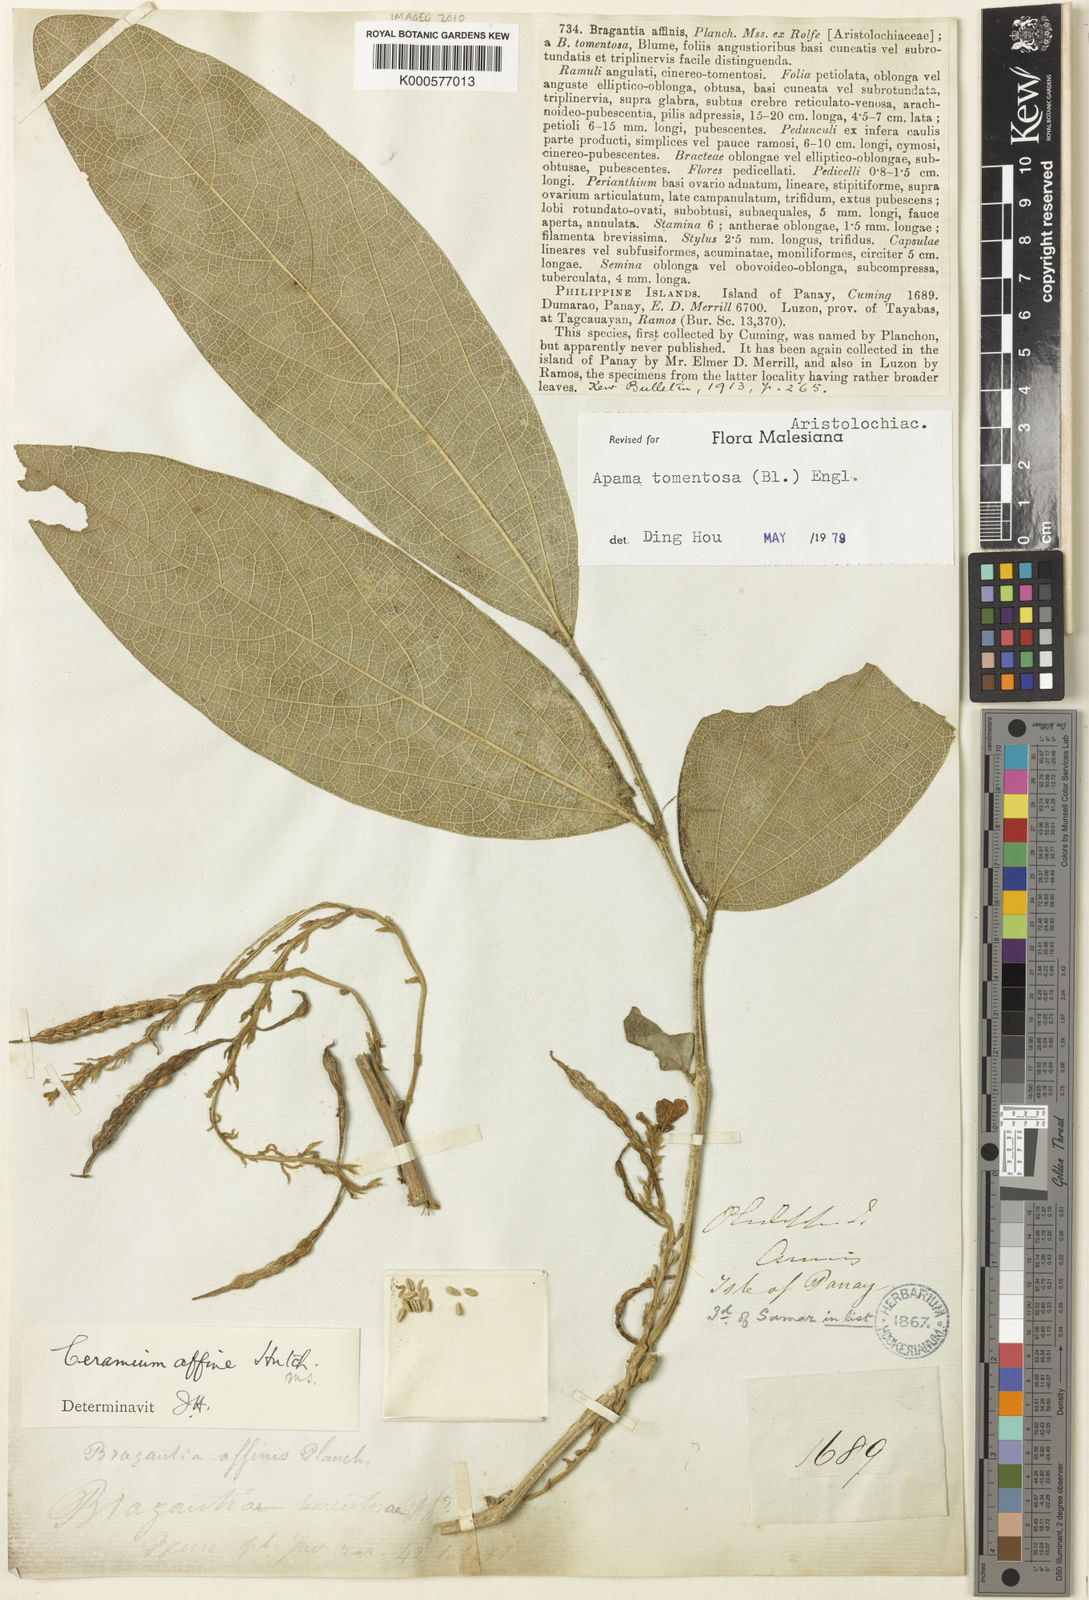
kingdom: Plantae
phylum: Tracheophyta
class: Magnoliopsida
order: Piperales
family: Aristolochiaceae
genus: Thottea
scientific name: Thottea tomentosa
